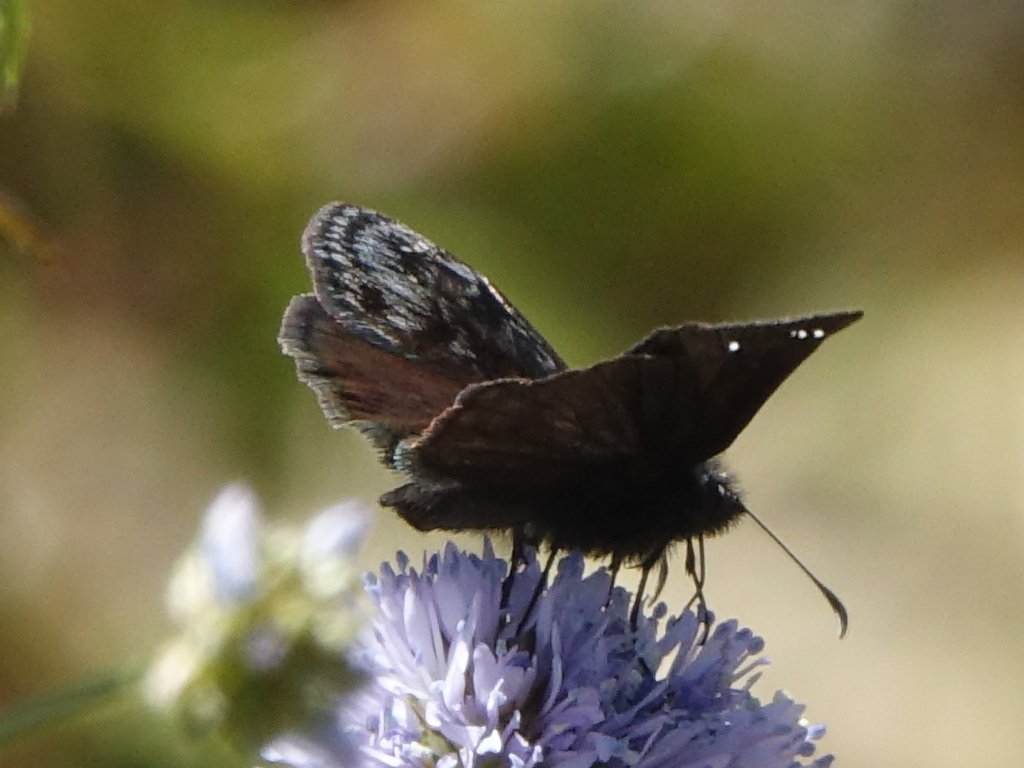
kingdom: Animalia
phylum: Arthropoda
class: Insecta
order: Lepidoptera
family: Hesperiidae
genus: Erynnis
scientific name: Erynnis propertius
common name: Propertius Duskywing
